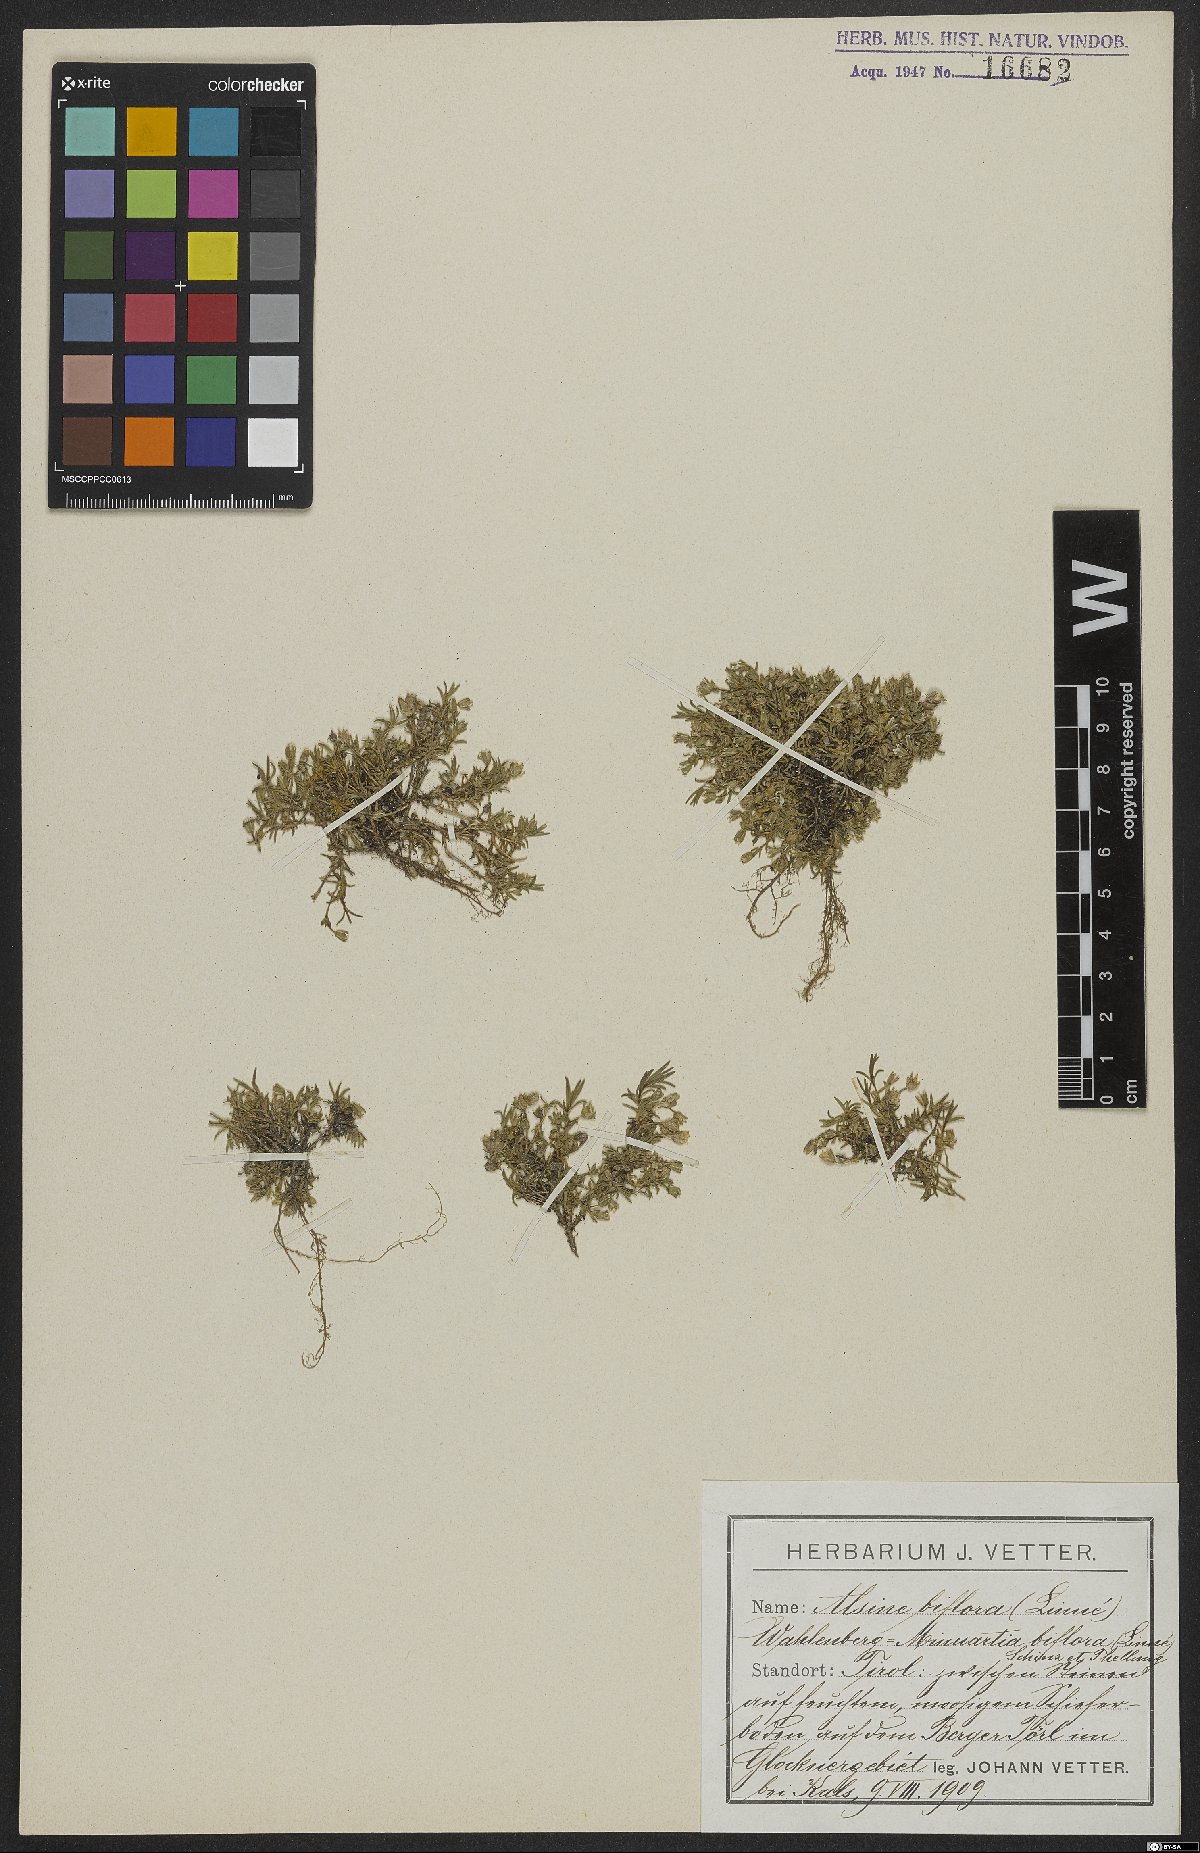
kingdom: Plantae
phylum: Tracheophyta
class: Magnoliopsida
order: Caryophyllales
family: Caryophyllaceae
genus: Cherleria
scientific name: Cherleria biflora
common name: Mountain sandwort
